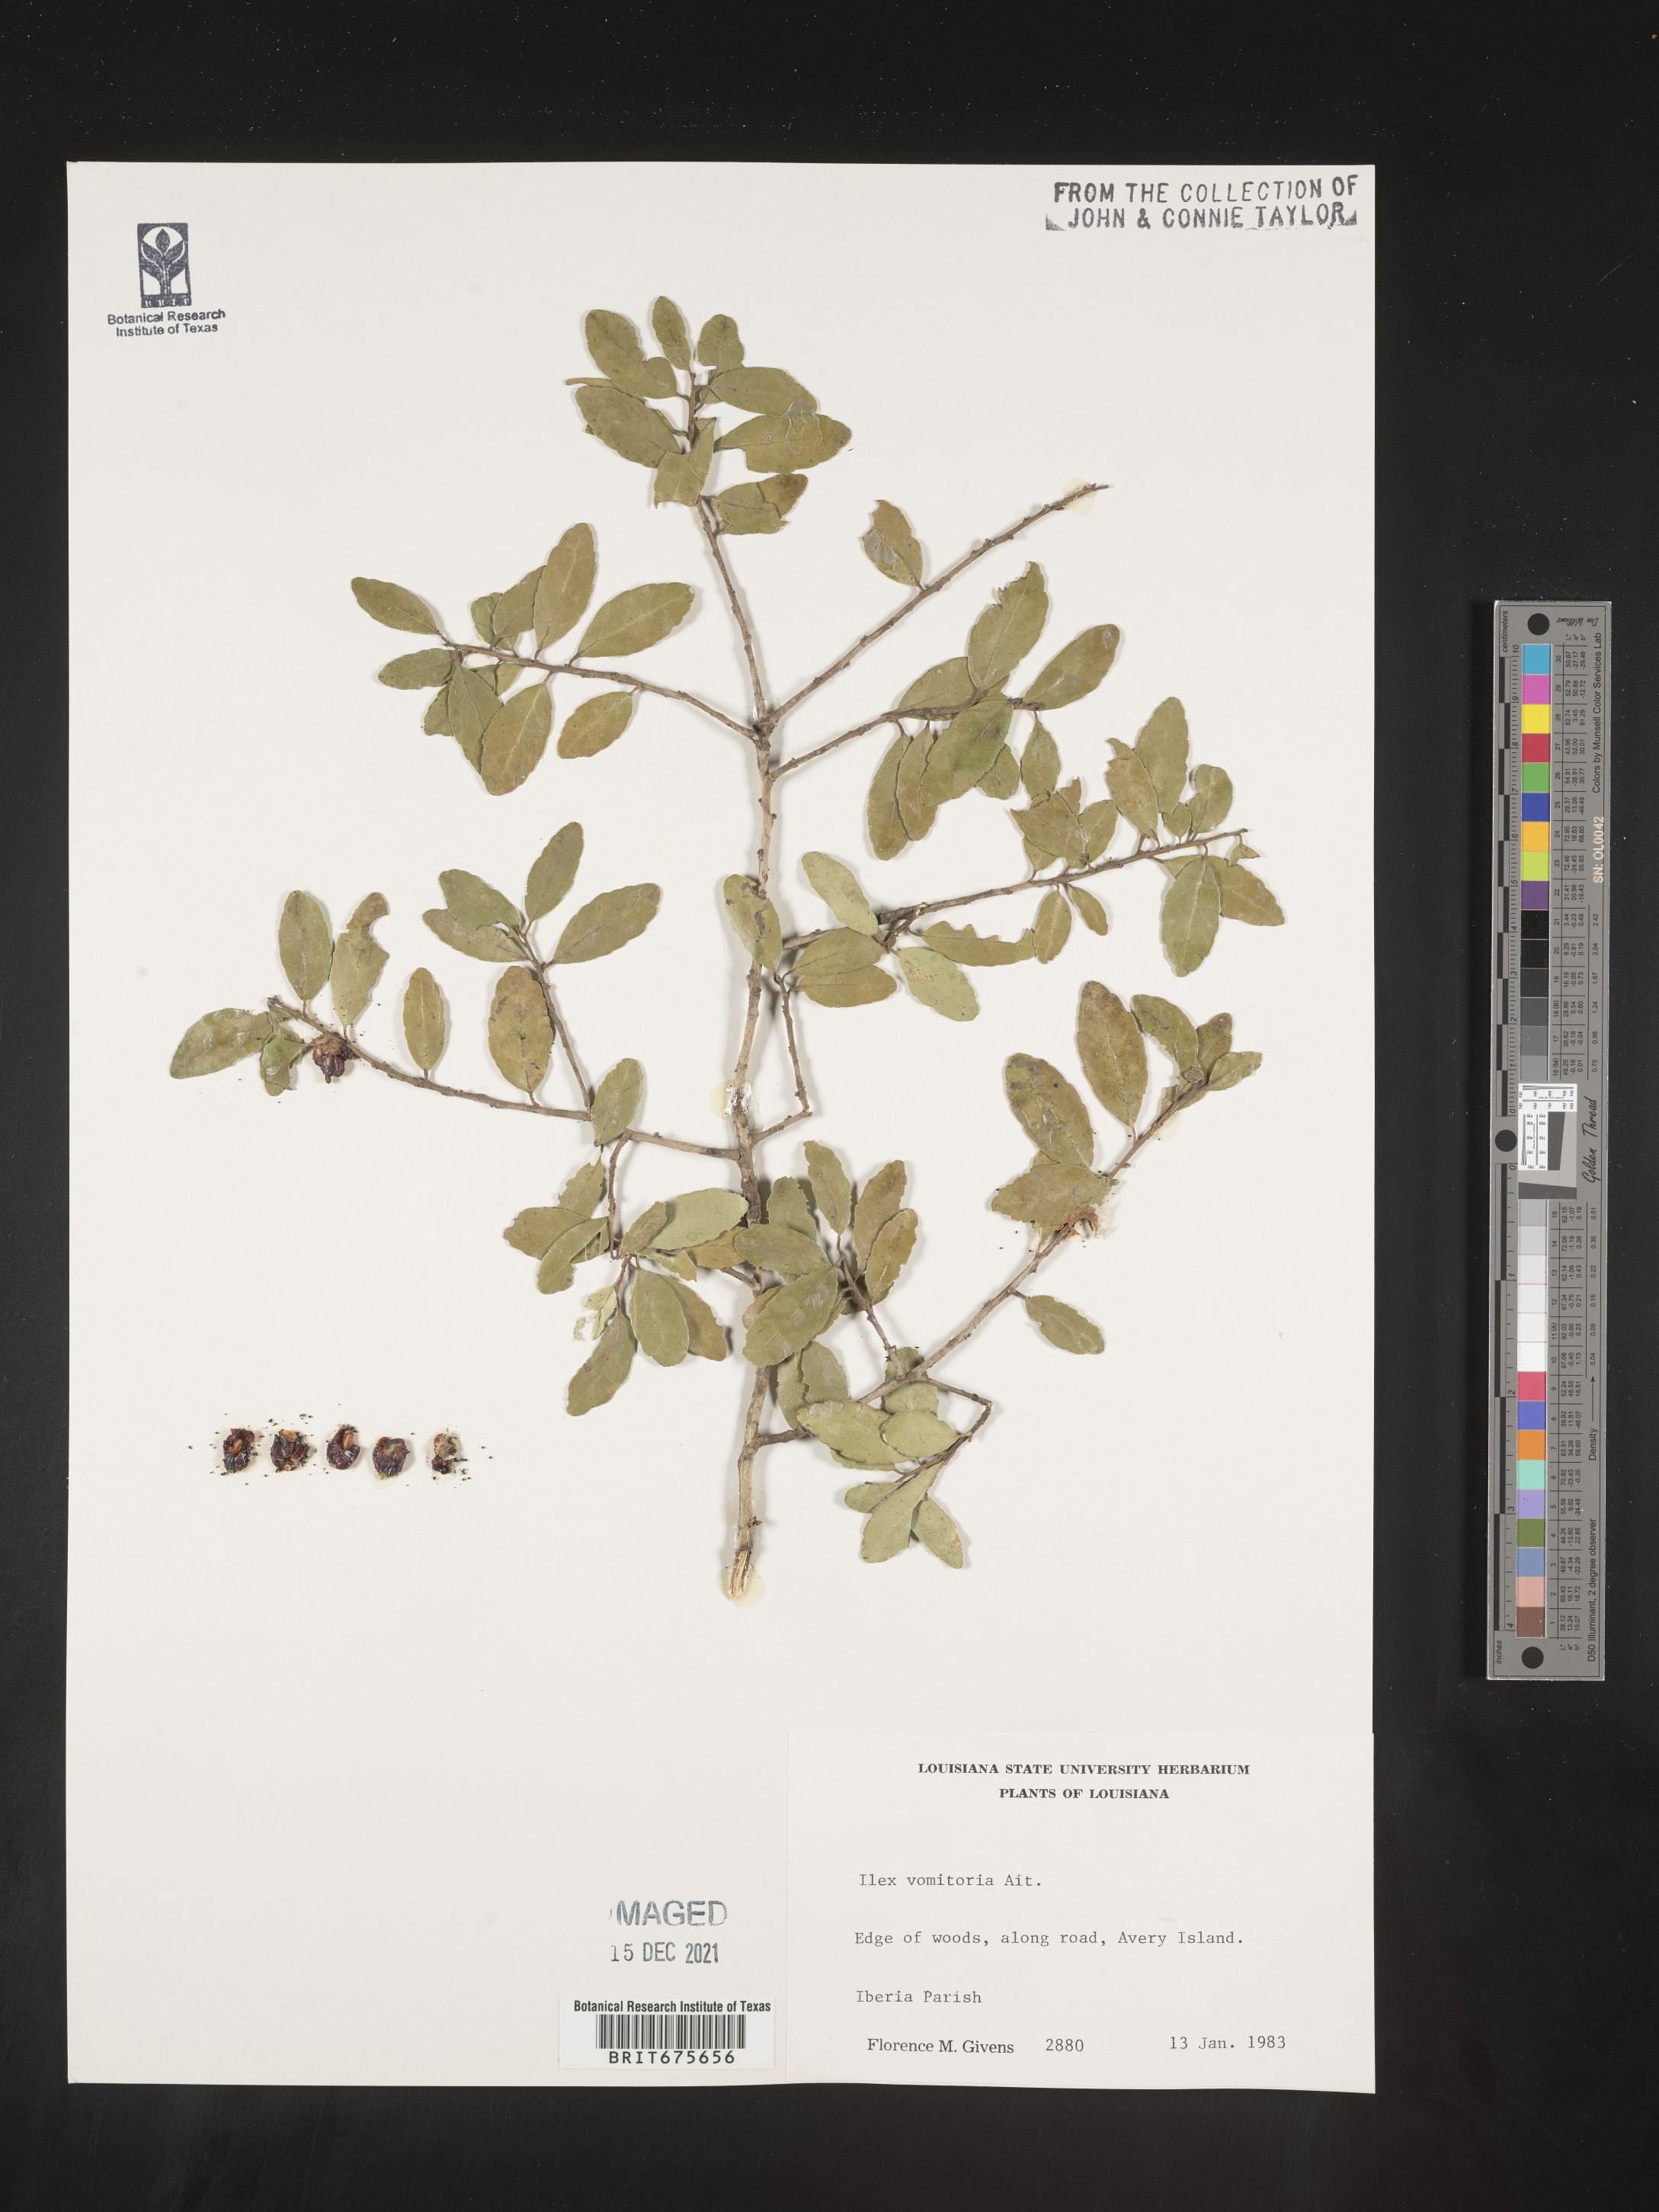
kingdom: Plantae
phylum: Tracheophyta
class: Magnoliopsida
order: Aquifoliales
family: Aquifoliaceae
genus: Ilex
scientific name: Ilex vomitoria
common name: Yaupon holly
